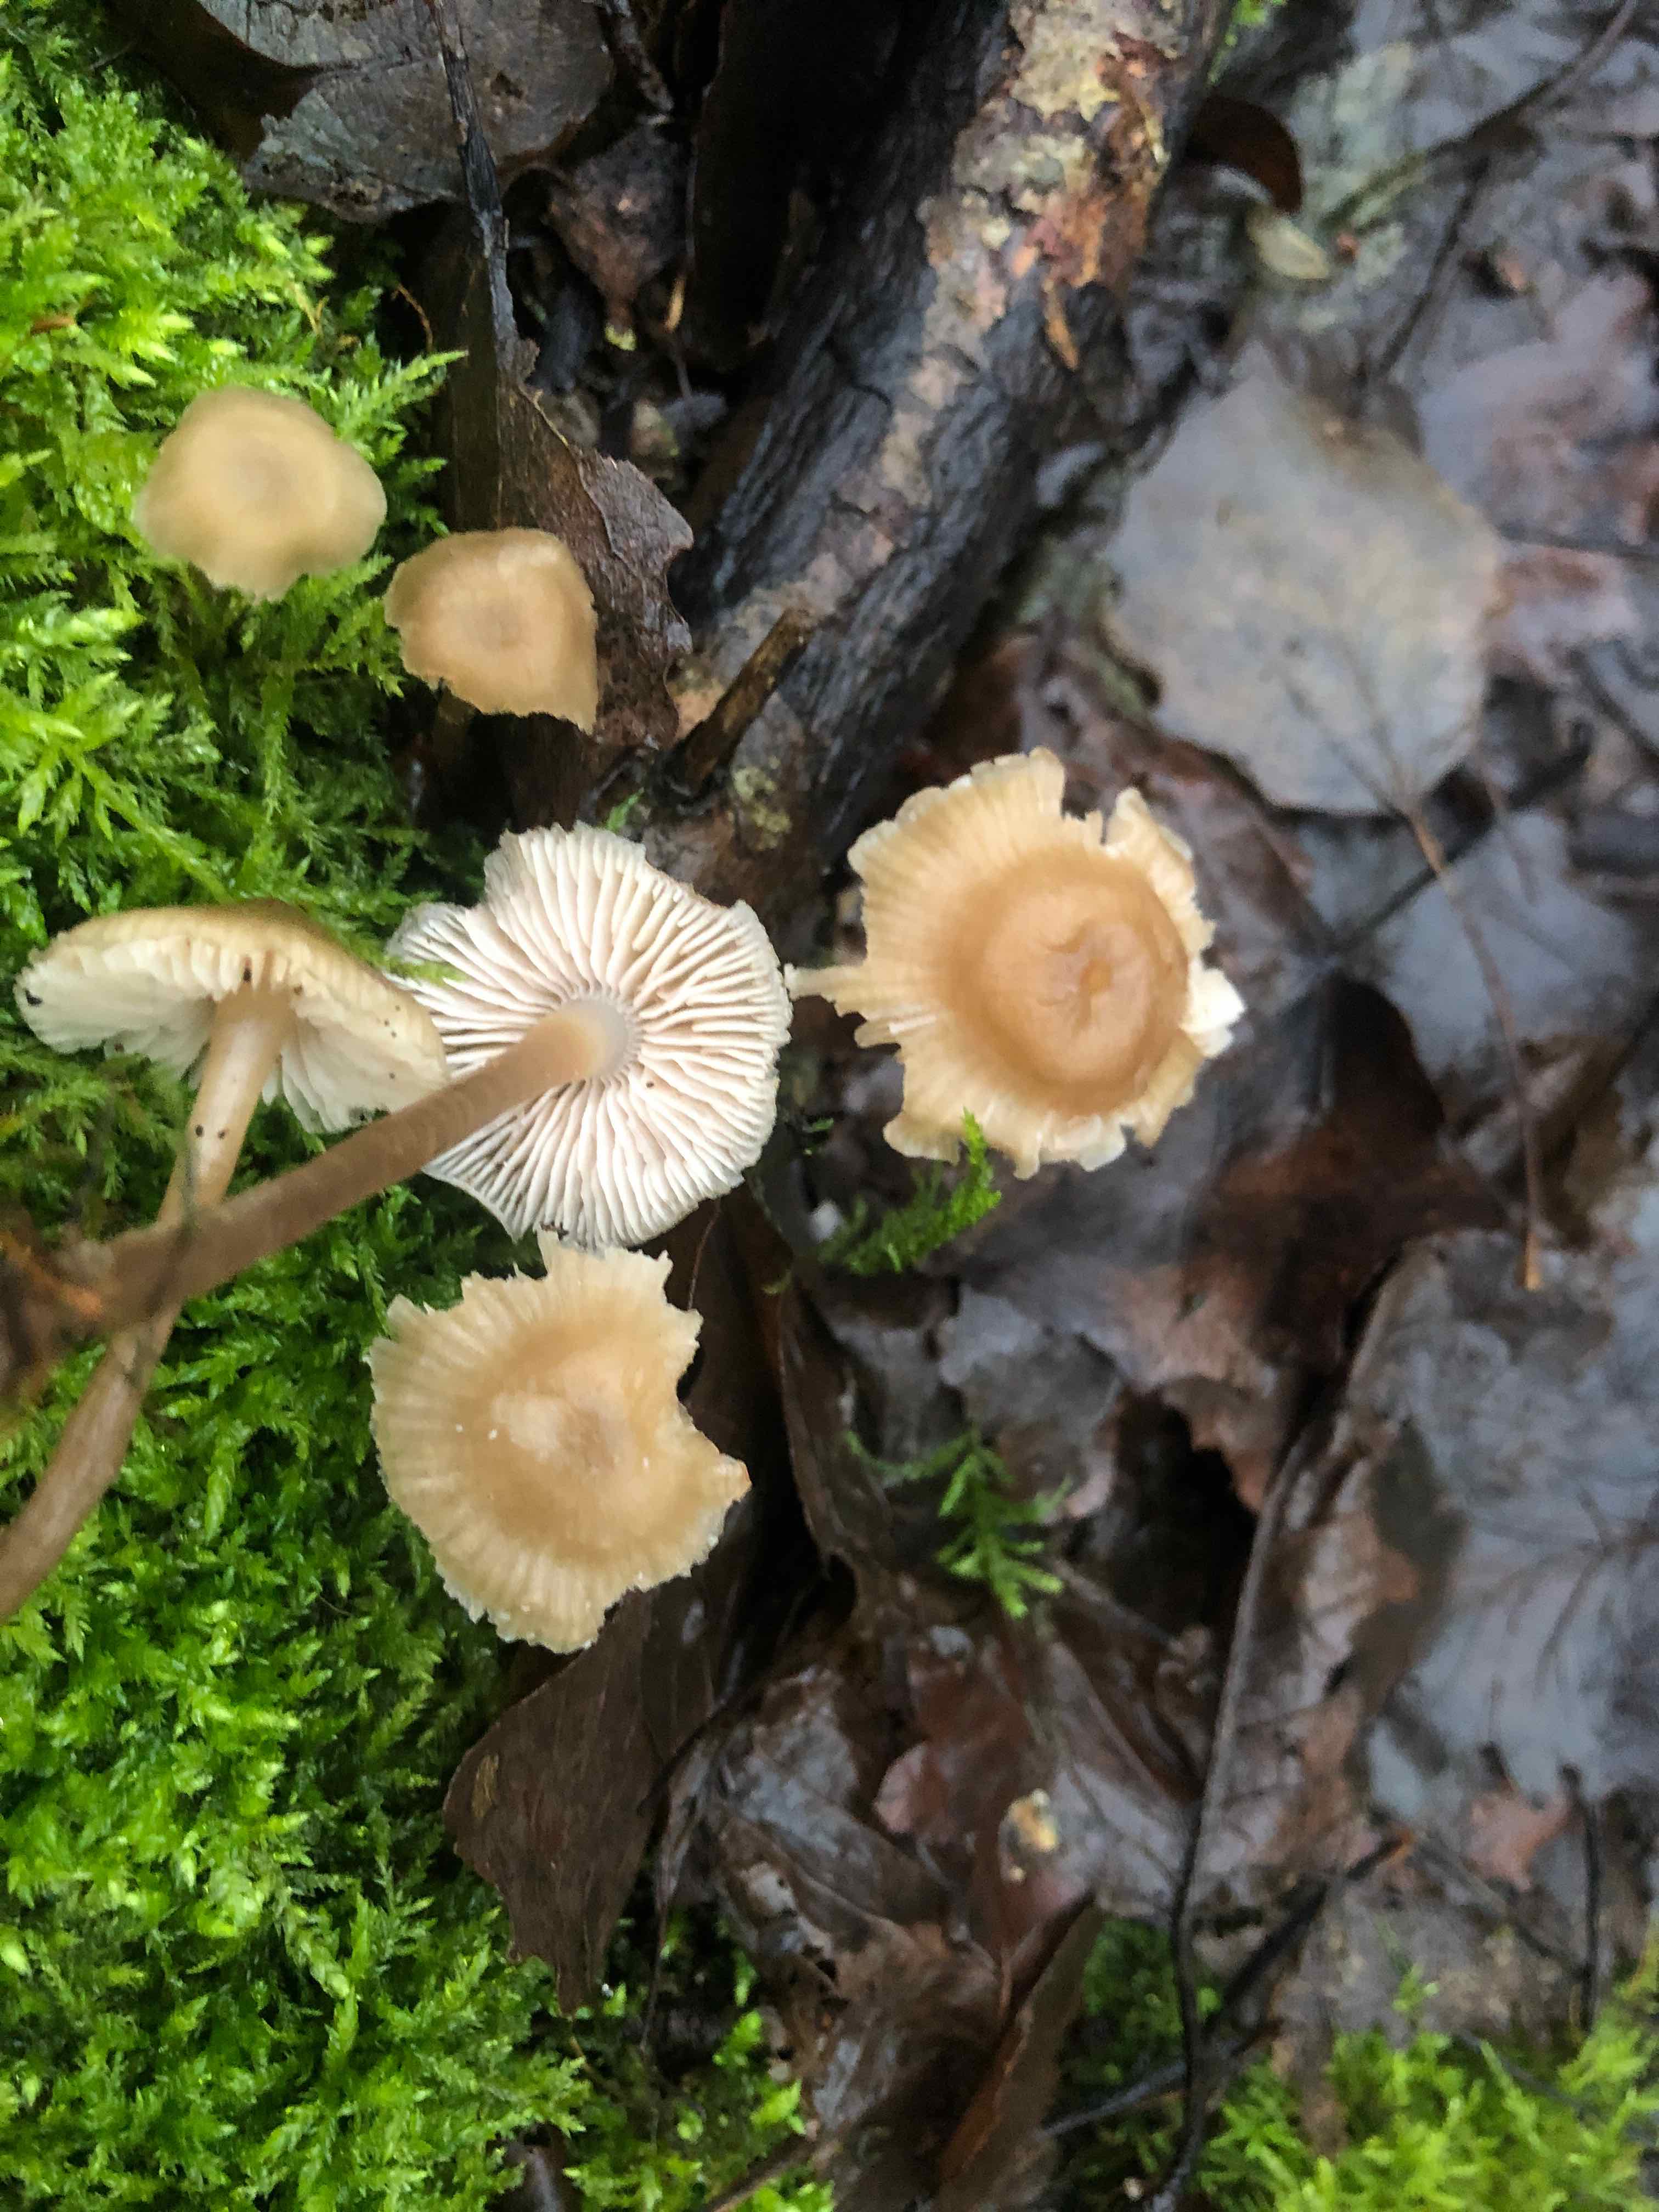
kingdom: Fungi
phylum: Basidiomycota
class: Agaricomycetes
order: Agaricales
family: Mycenaceae
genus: Mycena
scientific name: Mycena galericulata
